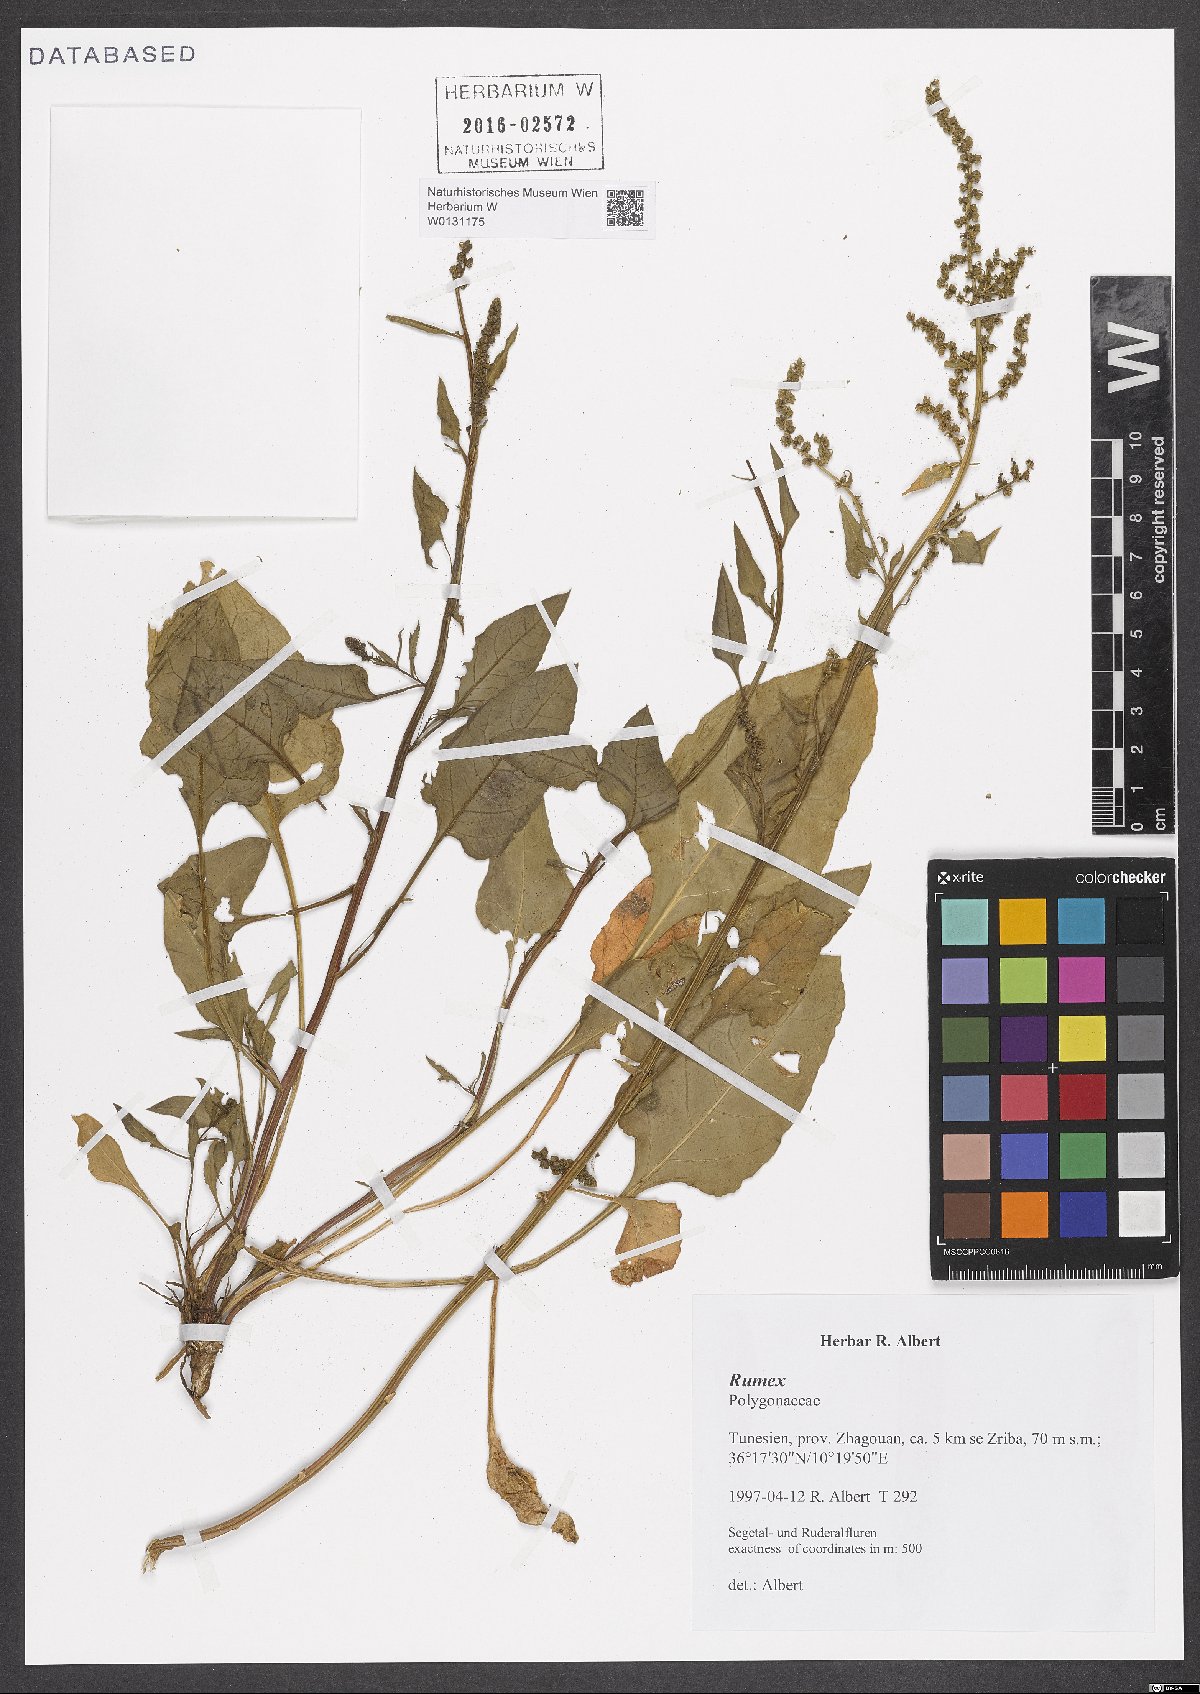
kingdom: Plantae
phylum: Tracheophyta
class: Magnoliopsida
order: Caryophyllales
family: Polygonaceae
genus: Rumex
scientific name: Rumex
